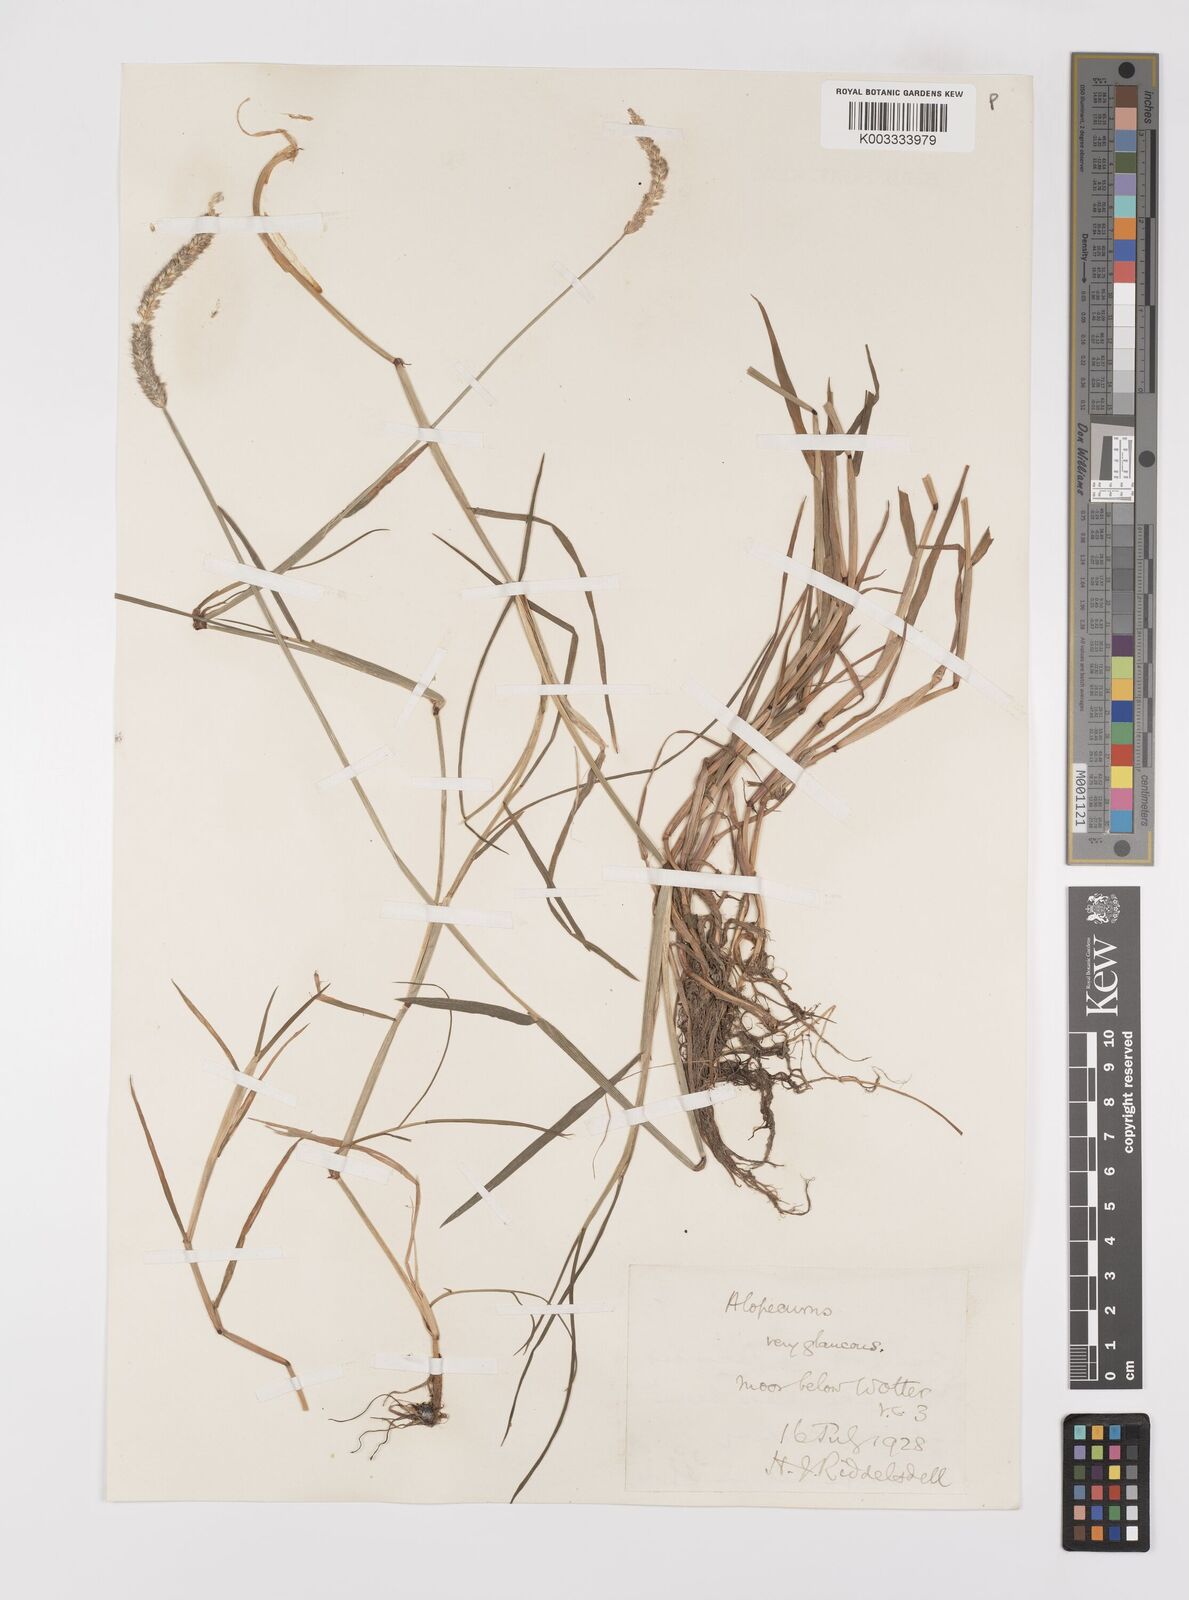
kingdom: Plantae
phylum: Tracheophyta
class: Liliopsida
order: Poales
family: Poaceae
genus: Alopecurus
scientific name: Alopecurus geniculatus
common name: Water foxtail
